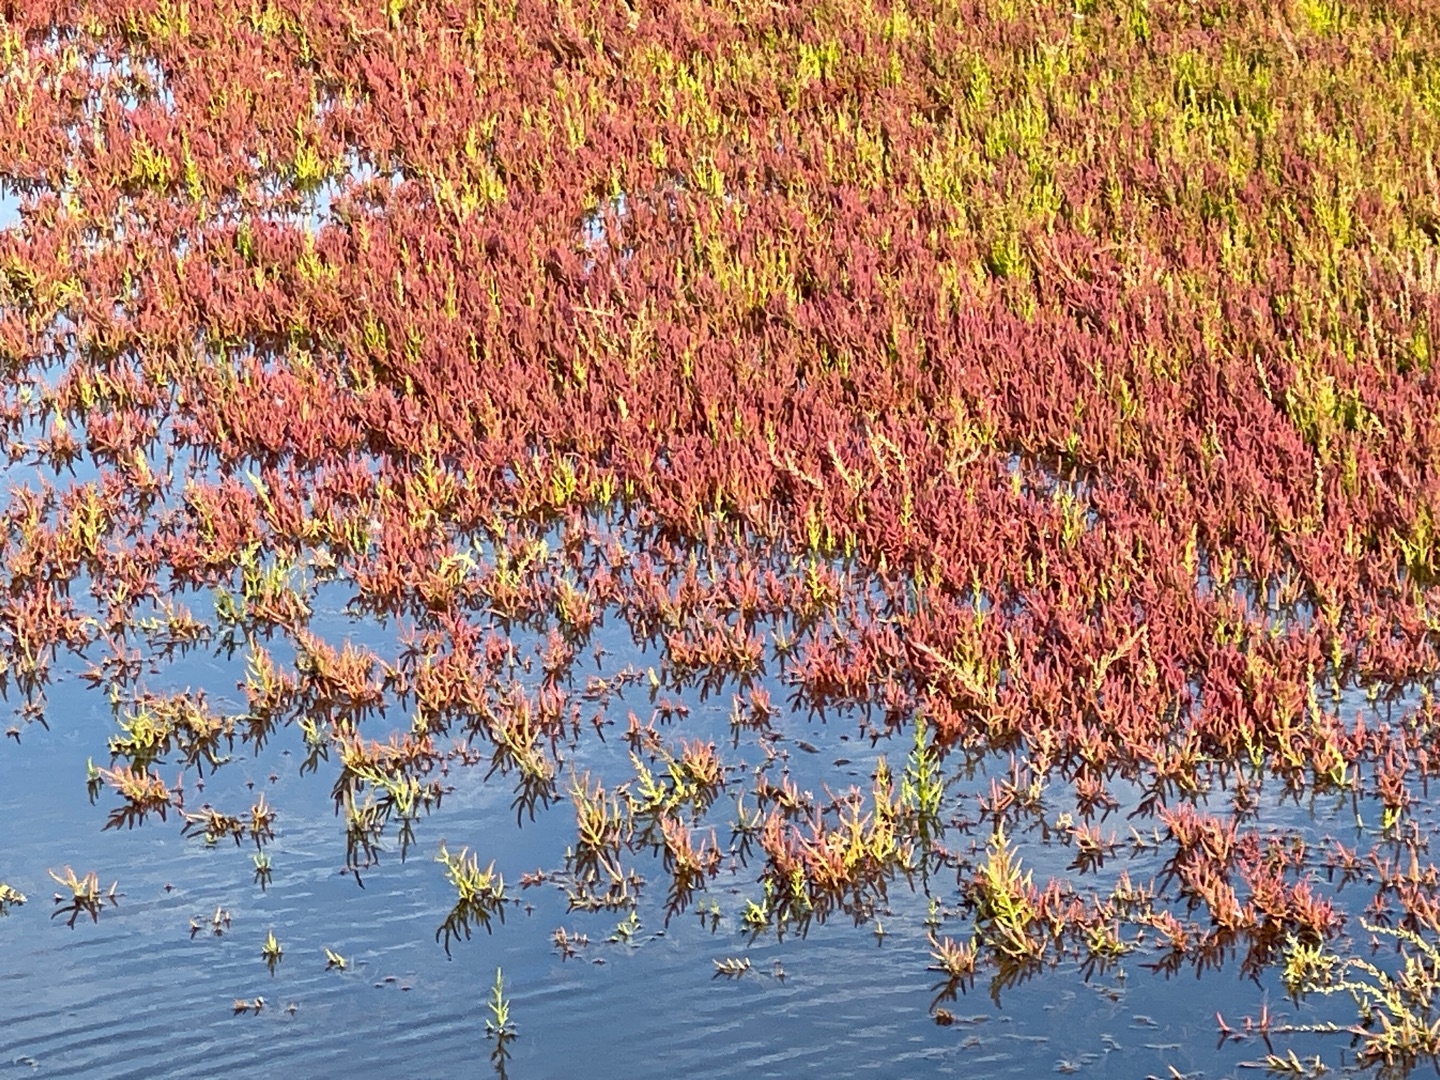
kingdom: Plantae
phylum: Tracheophyta
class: Magnoliopsida
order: Caryophyllales
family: Amaranthaceae
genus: Salicornia
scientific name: Salicornia europaea
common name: Almindelig salturt
